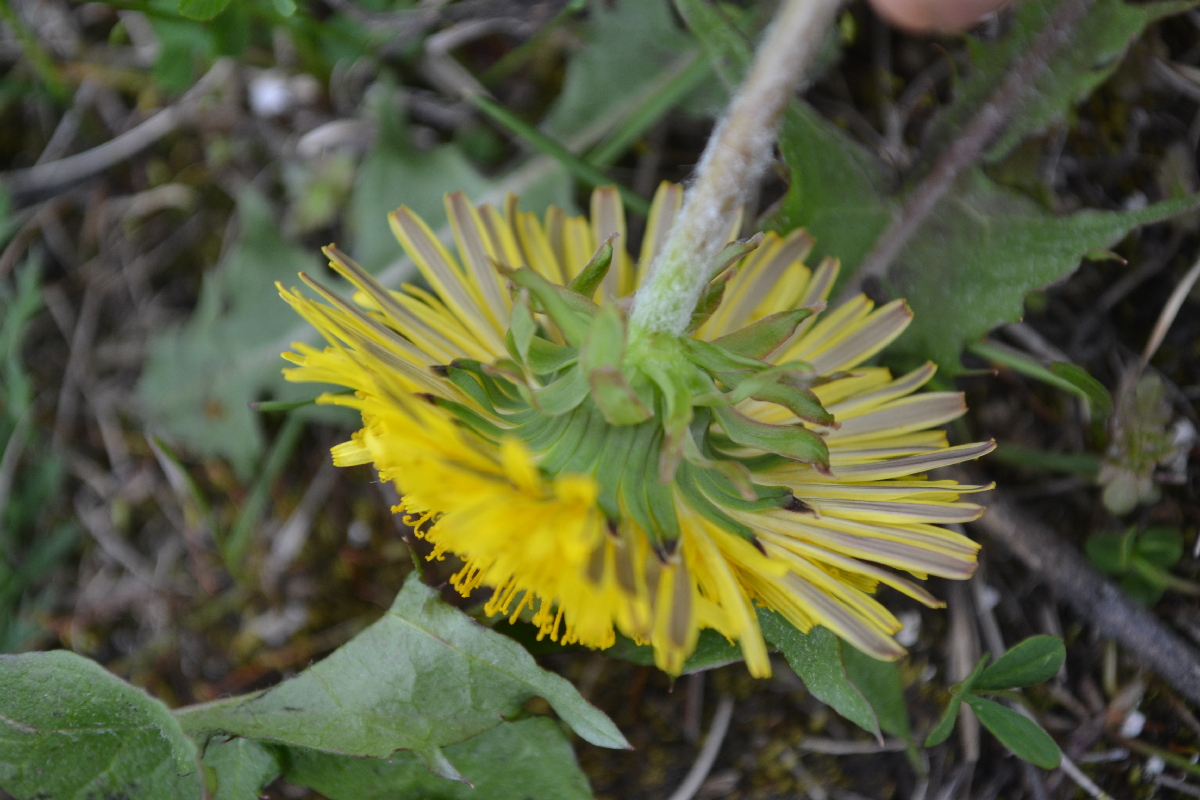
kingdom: Plantae
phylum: Tracheophyta
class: Magnoliopsida
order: Asterales
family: Asteraceae
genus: Taraxacum
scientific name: Taraxacum macroceras
